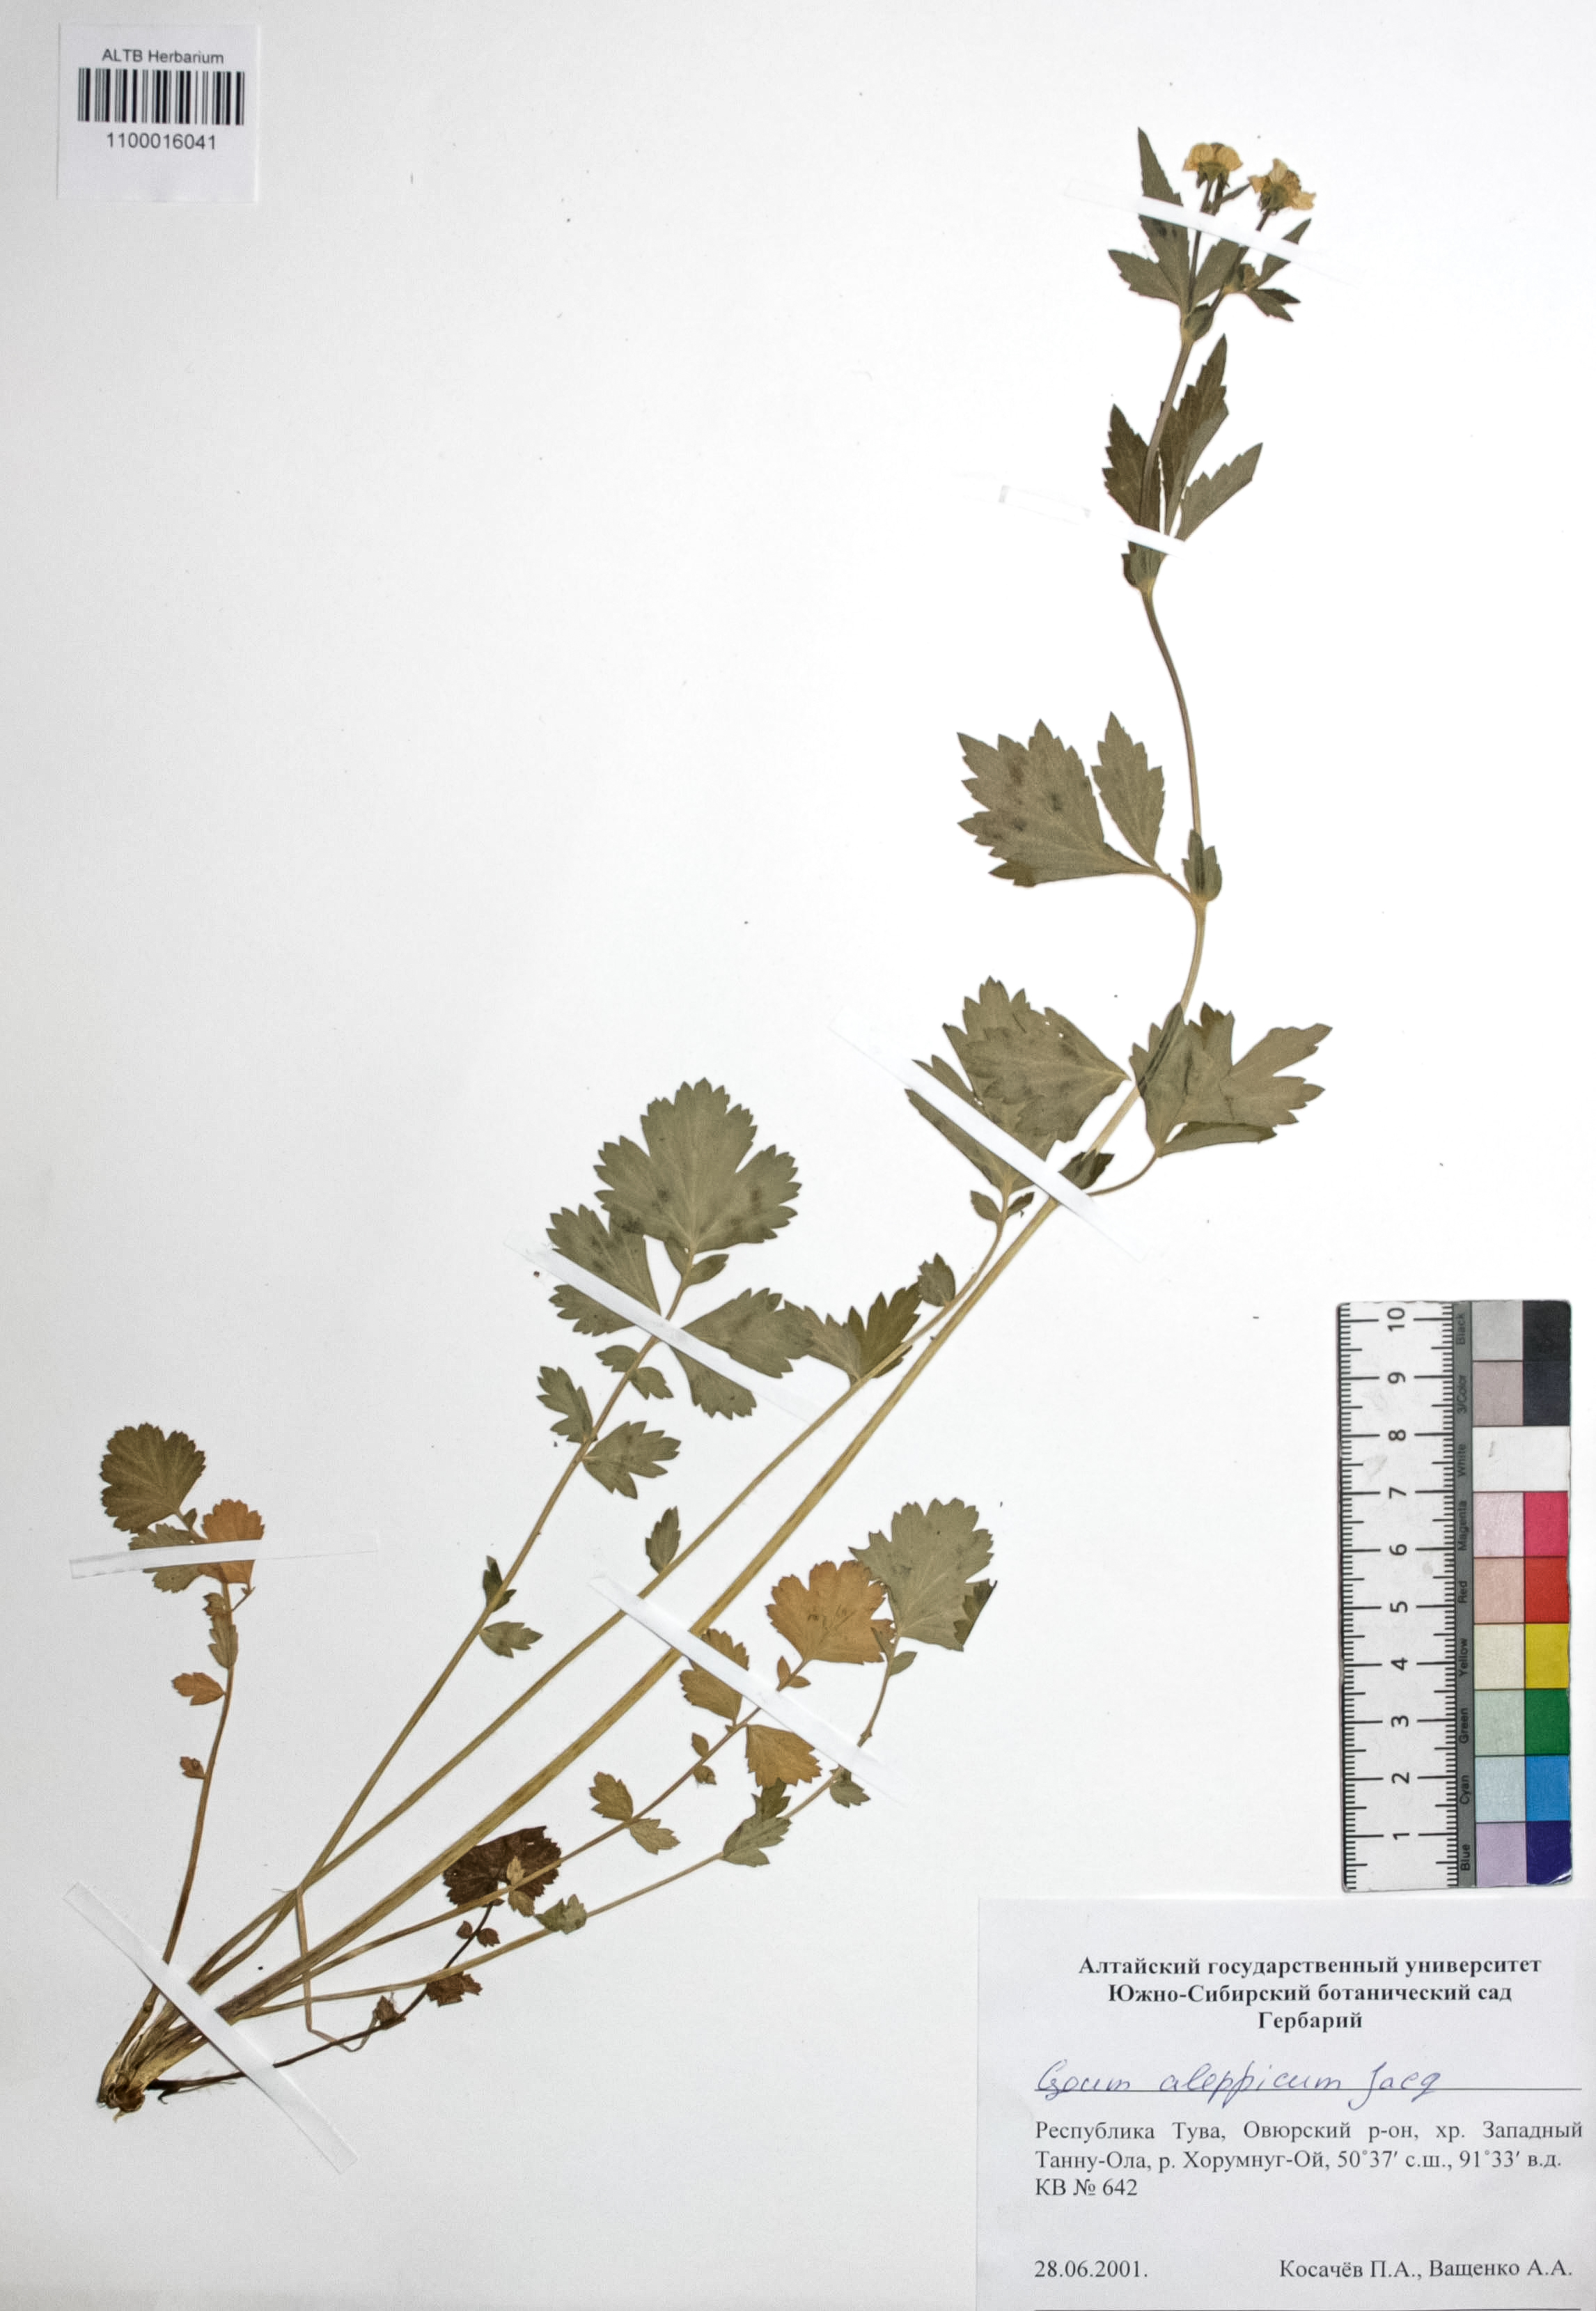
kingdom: Plantae
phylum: Tracheophyta
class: Magnoliopsida
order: Rosales
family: Rosaceae
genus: Geum
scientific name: Geum aleppicum
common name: Yellow avens
